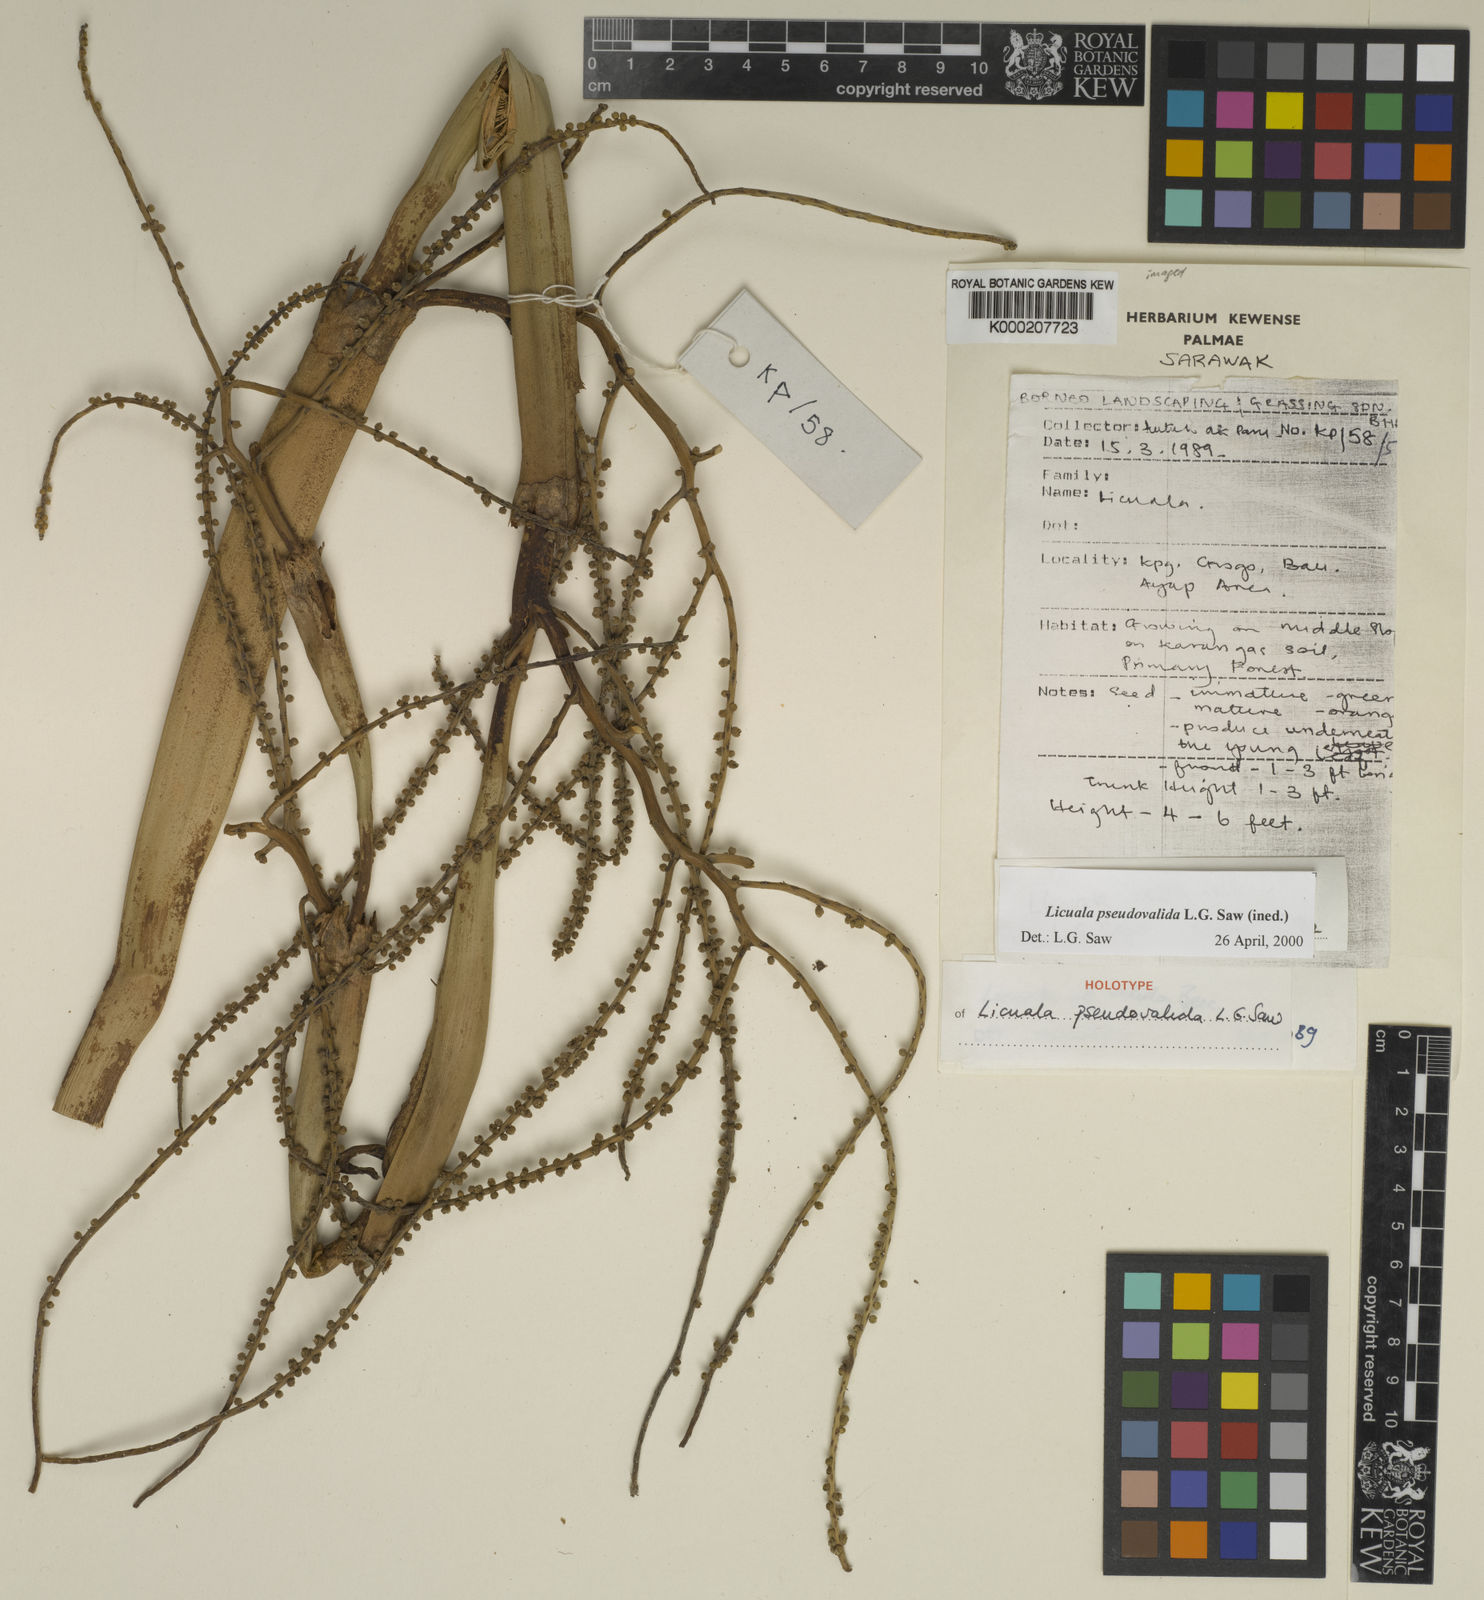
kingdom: Plantae
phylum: Tracheophyta
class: Liliopsida
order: Arecales
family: Arecaceae
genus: Licuala
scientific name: Licuala pseudovalida
